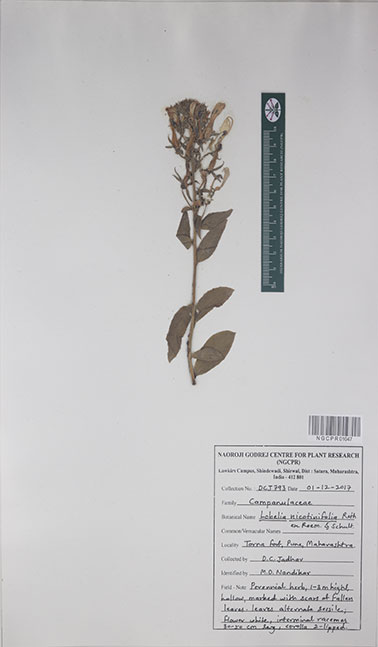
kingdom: Plantae
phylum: Tracheophyta
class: Magnoliopsida
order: Asterales
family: Campanulaceae
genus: Lobelia
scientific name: Lobelia nicotianifolia
